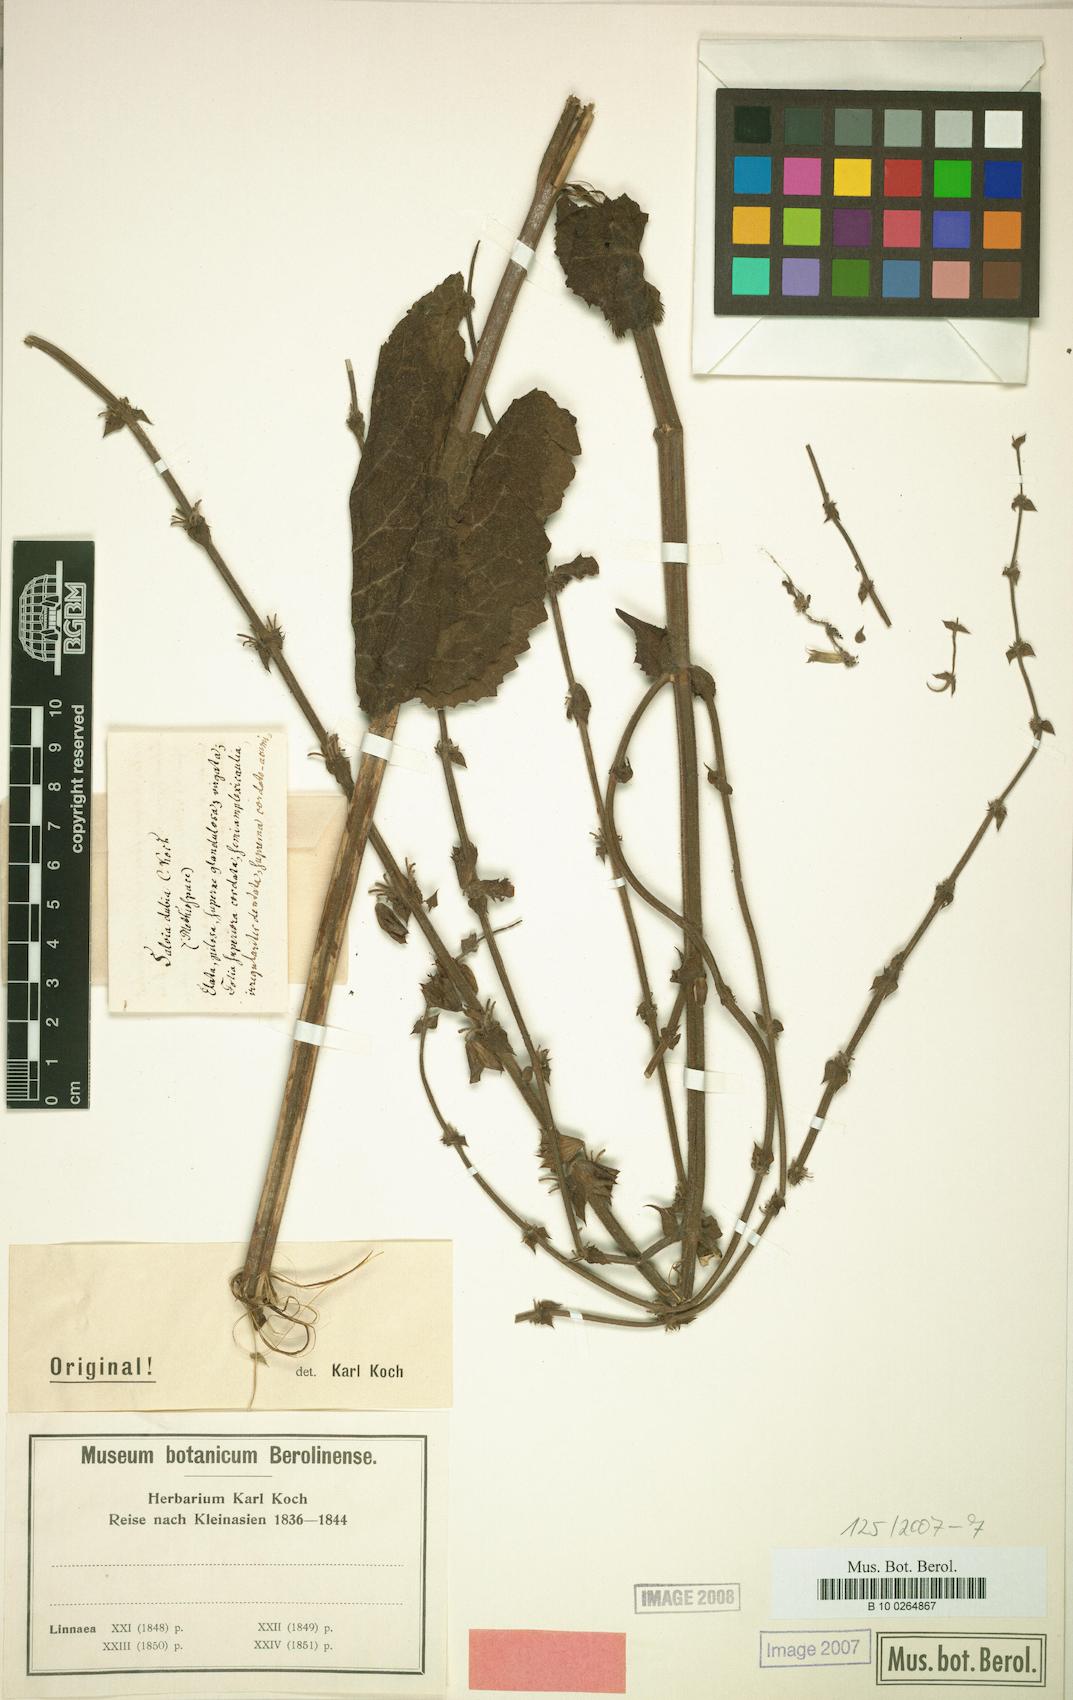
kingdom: Plantae
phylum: Tracheophyta
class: Magnoliopsida
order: Lamiales
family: Lamiaceae
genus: Salvia
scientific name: Salvia pratensis
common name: Meadow sage
